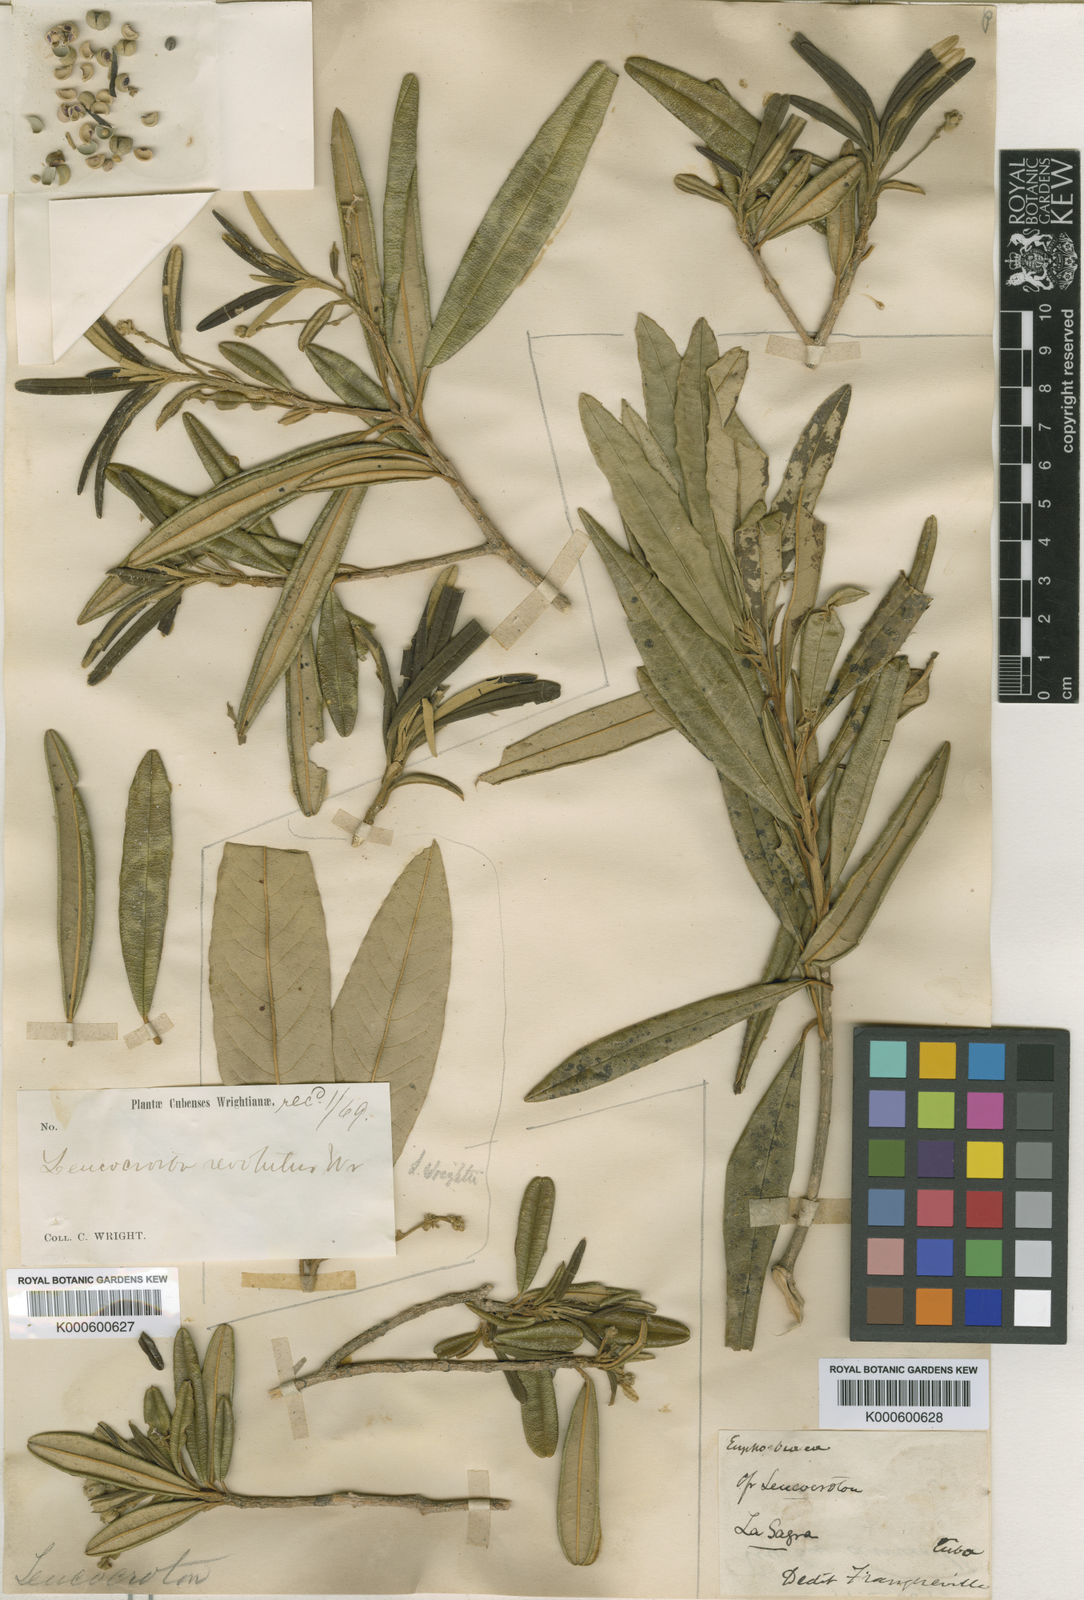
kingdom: Plantae
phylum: Tracheophyta
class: Magnoliopsida
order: Malpighiales
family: Euphorbiaceae
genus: Leucocroton
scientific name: Leucocroton revolutus
